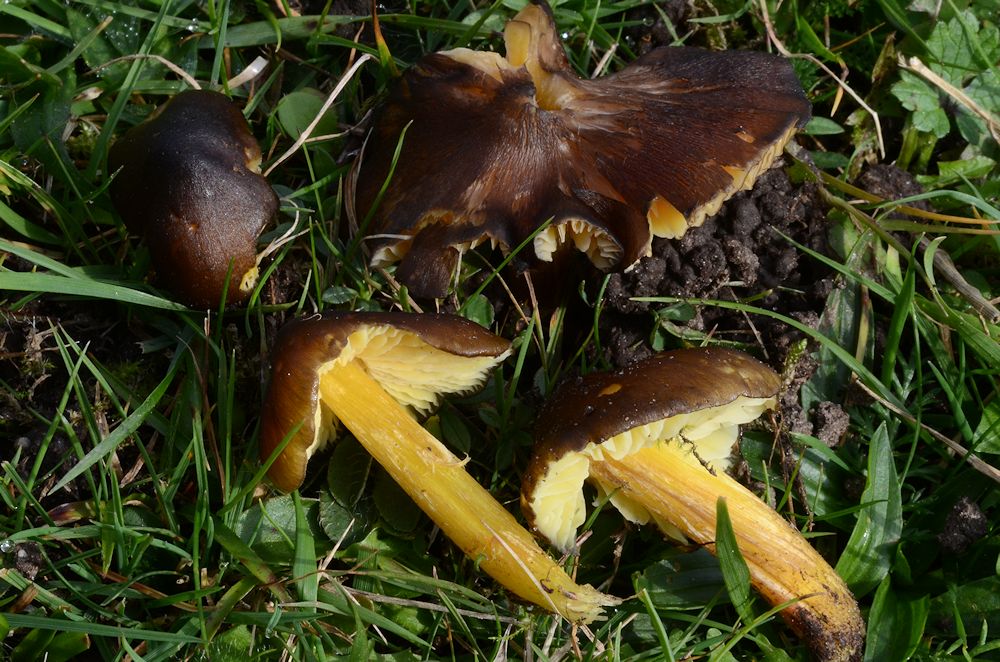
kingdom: Fungi
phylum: Basidiomycota
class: Agaricomycetes
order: Agaricales
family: Hygrophoraceae
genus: Hygrocybe
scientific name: Hygrocybe spadicea
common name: daddelbrun vokshat
